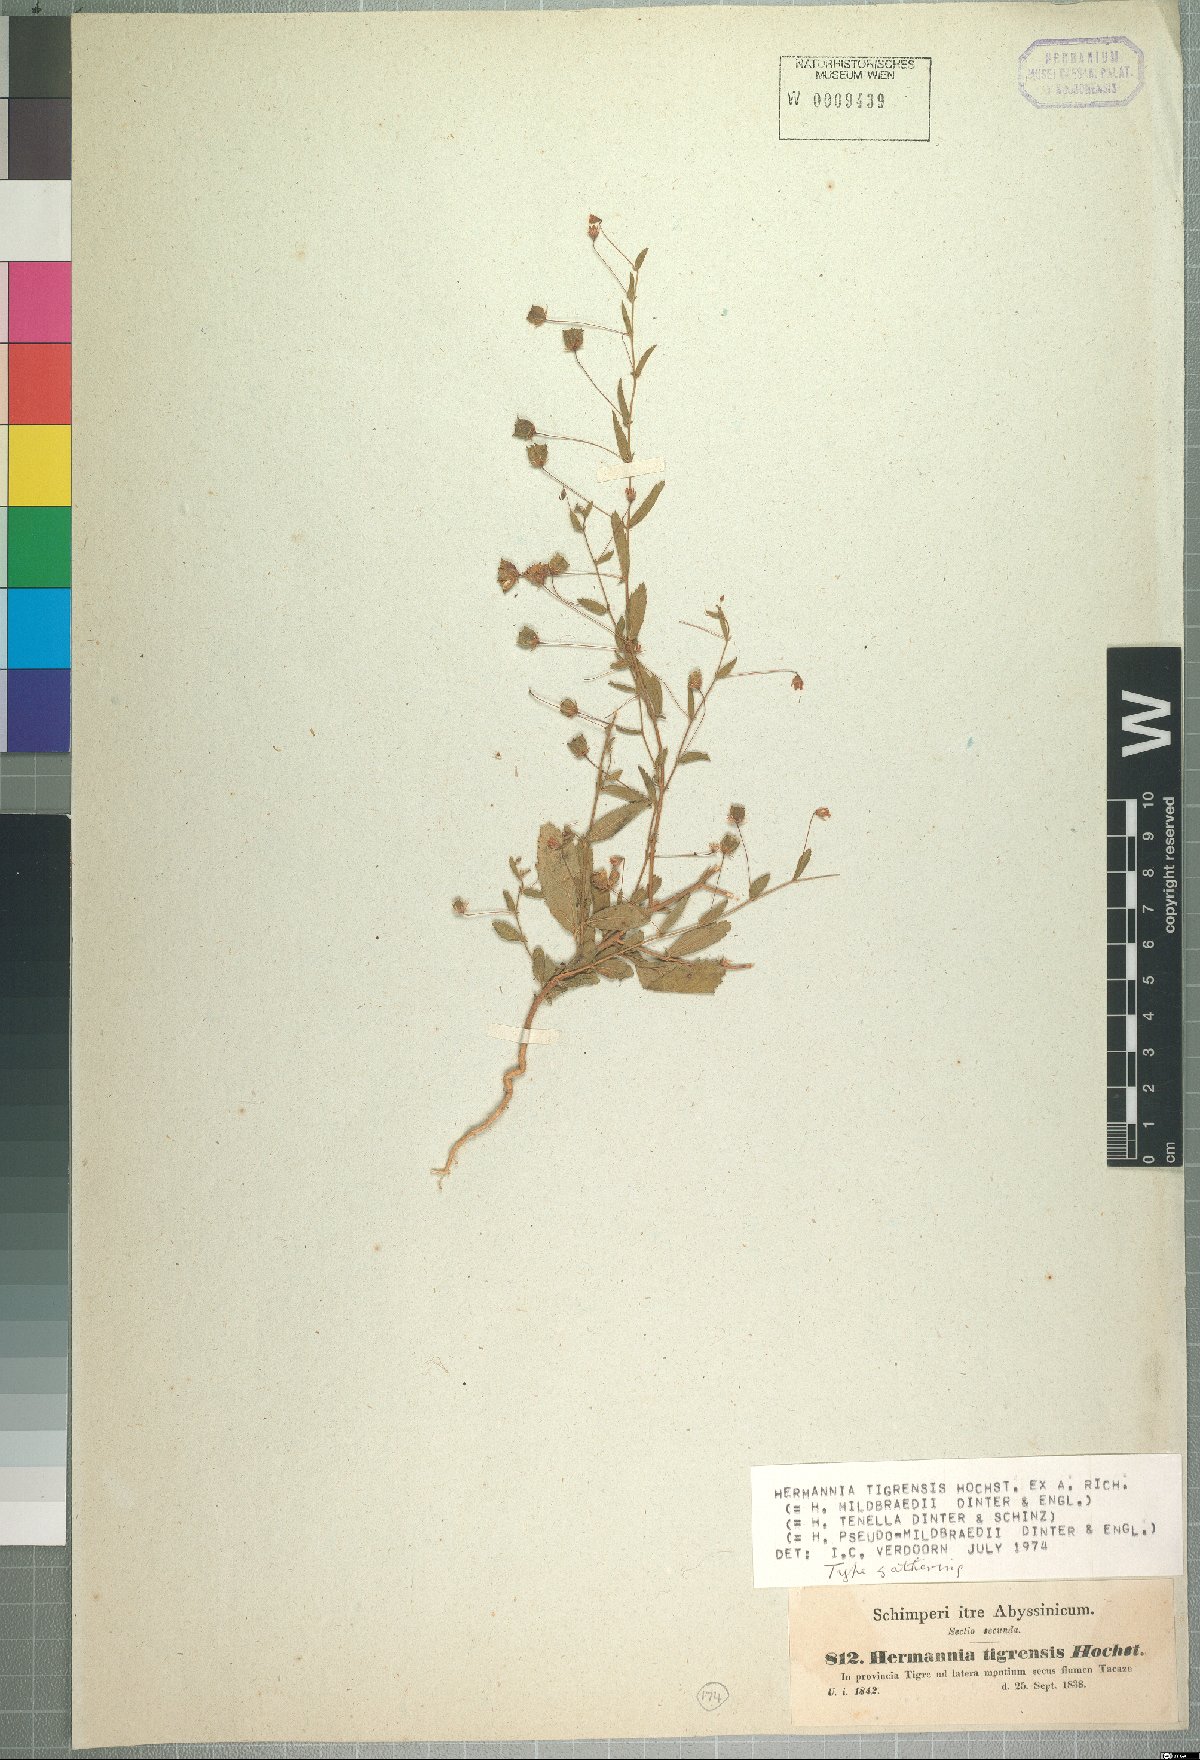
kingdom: Plantae
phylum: Tracheophyta
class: Magnoliopsida
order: Malvales
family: Malvaceae
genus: Hermannia
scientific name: Hermannia tigreensis
